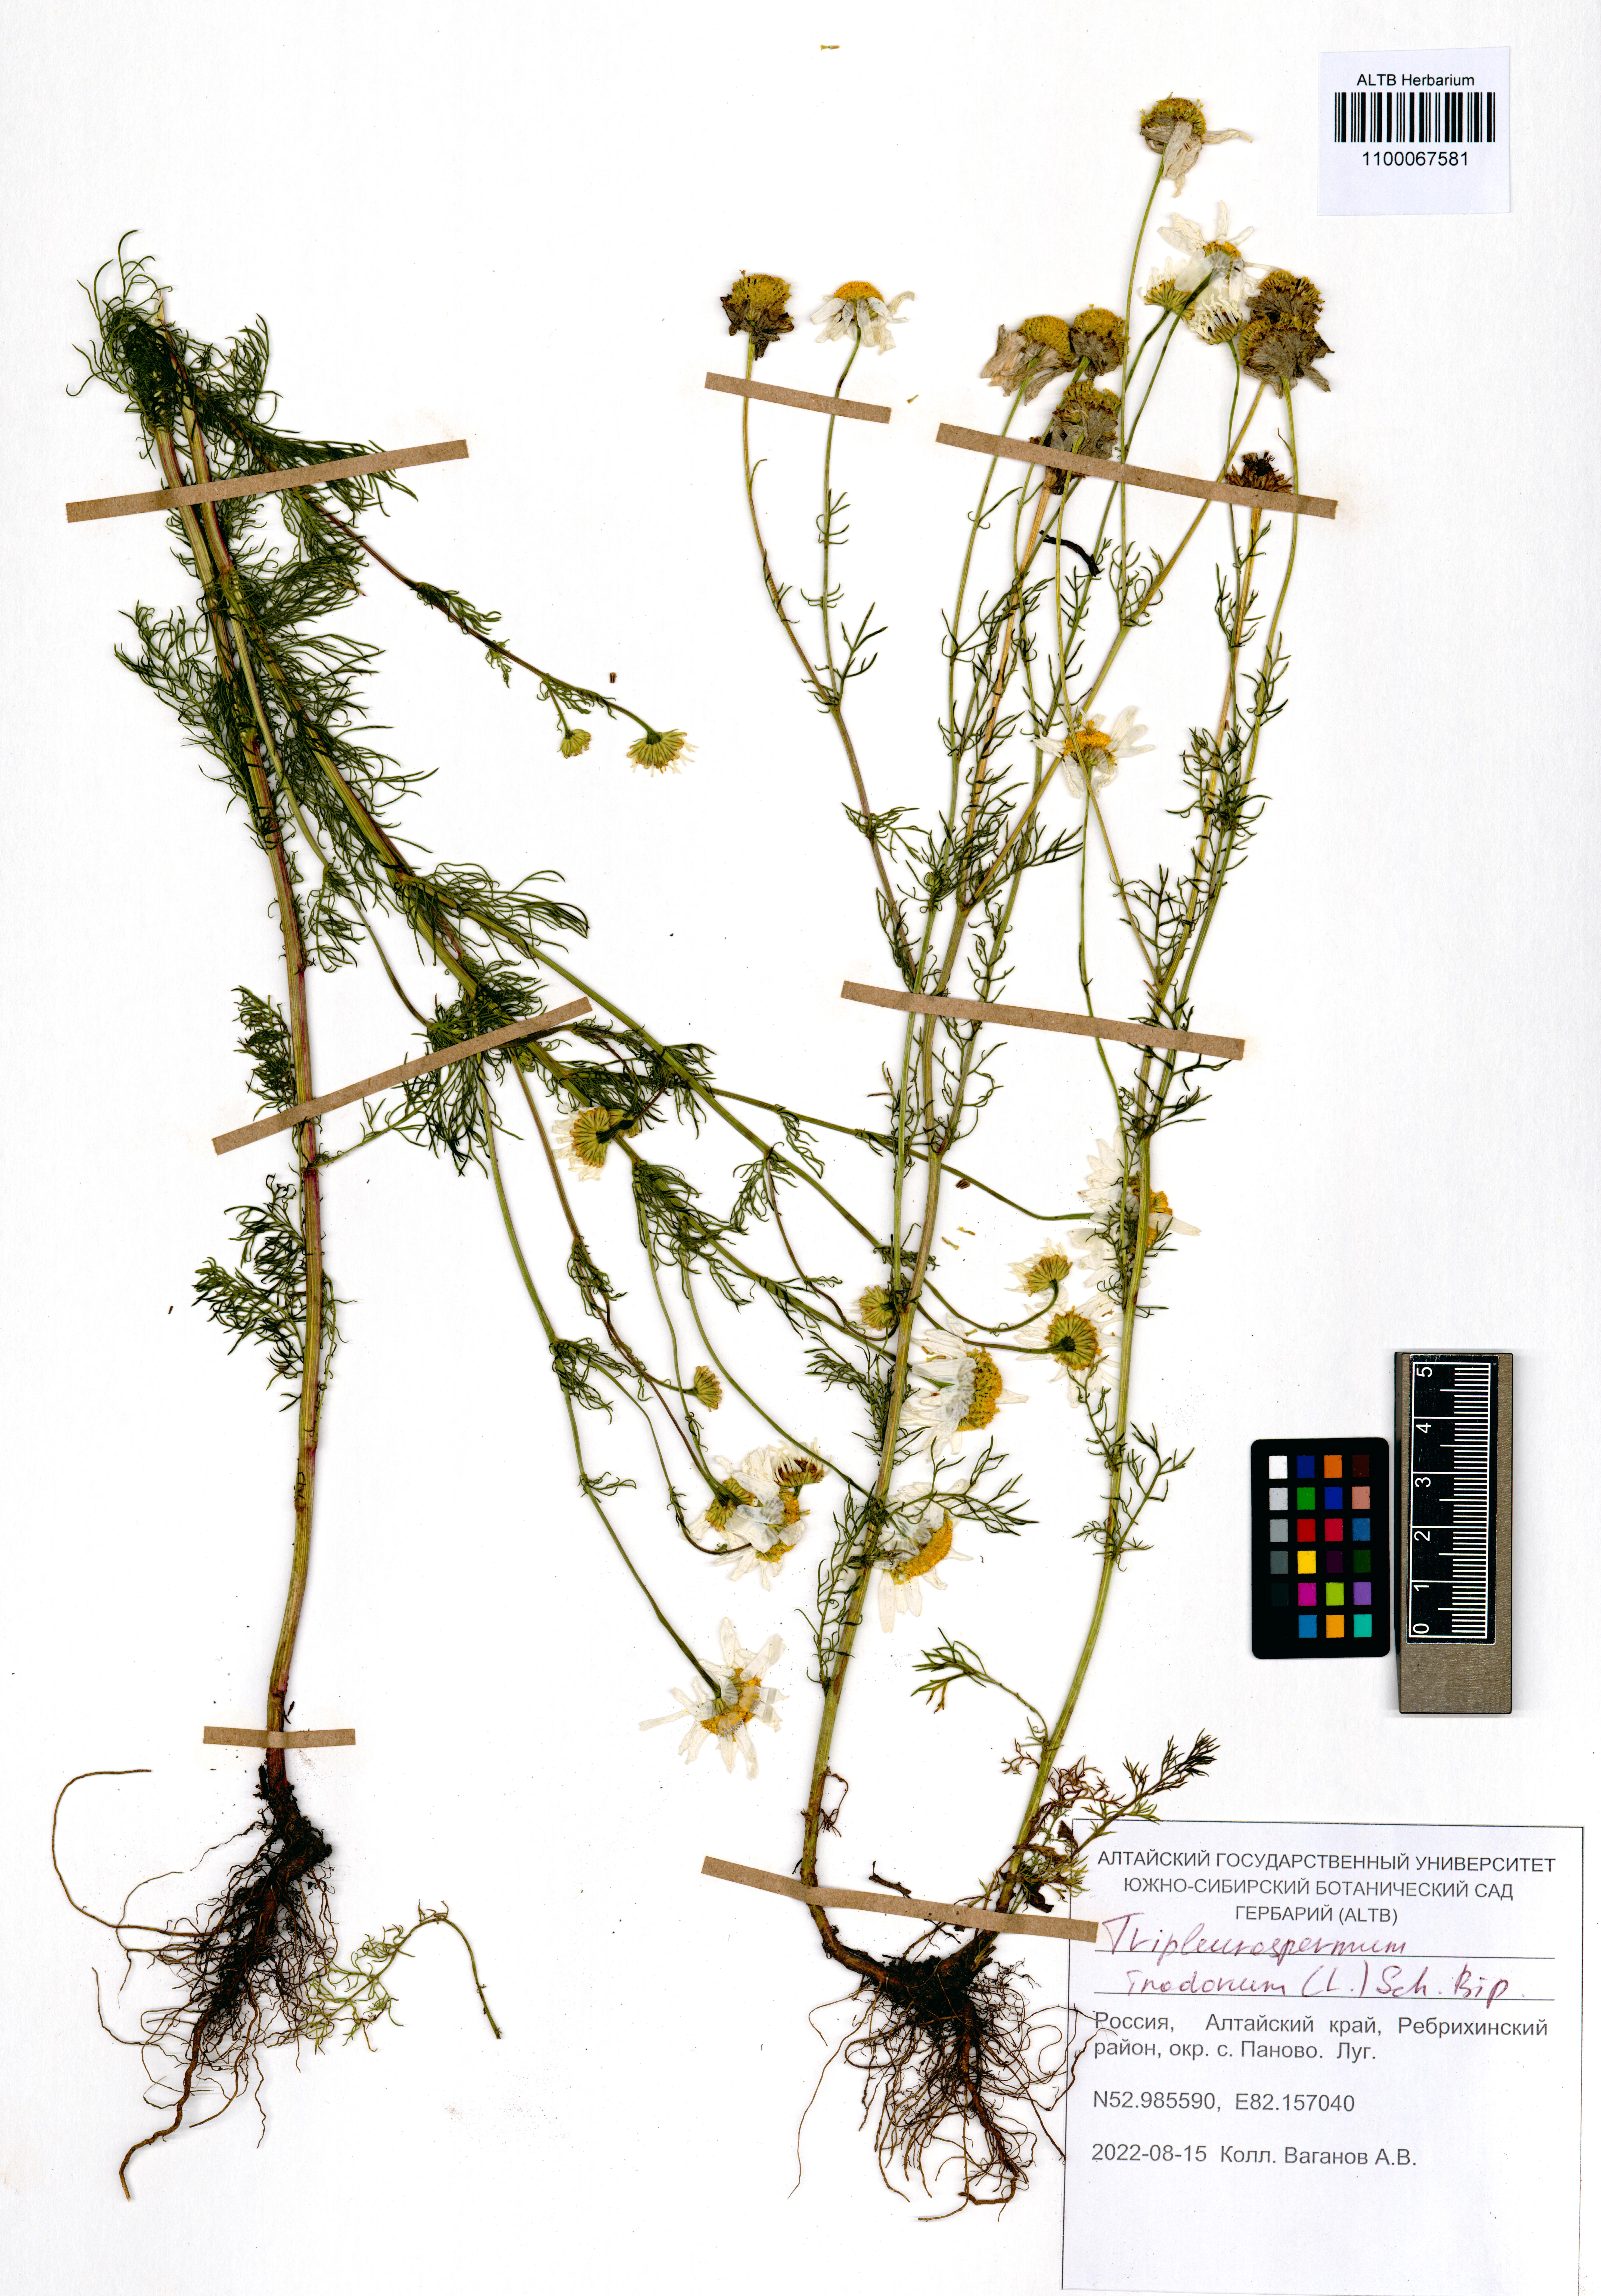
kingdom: Plantae
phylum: Tracheophyta
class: Magnoliopsida
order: Asterales
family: Asteraceae
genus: Tripleurospermum
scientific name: Tripleurospermum inodorum
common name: Scentless mayweed
